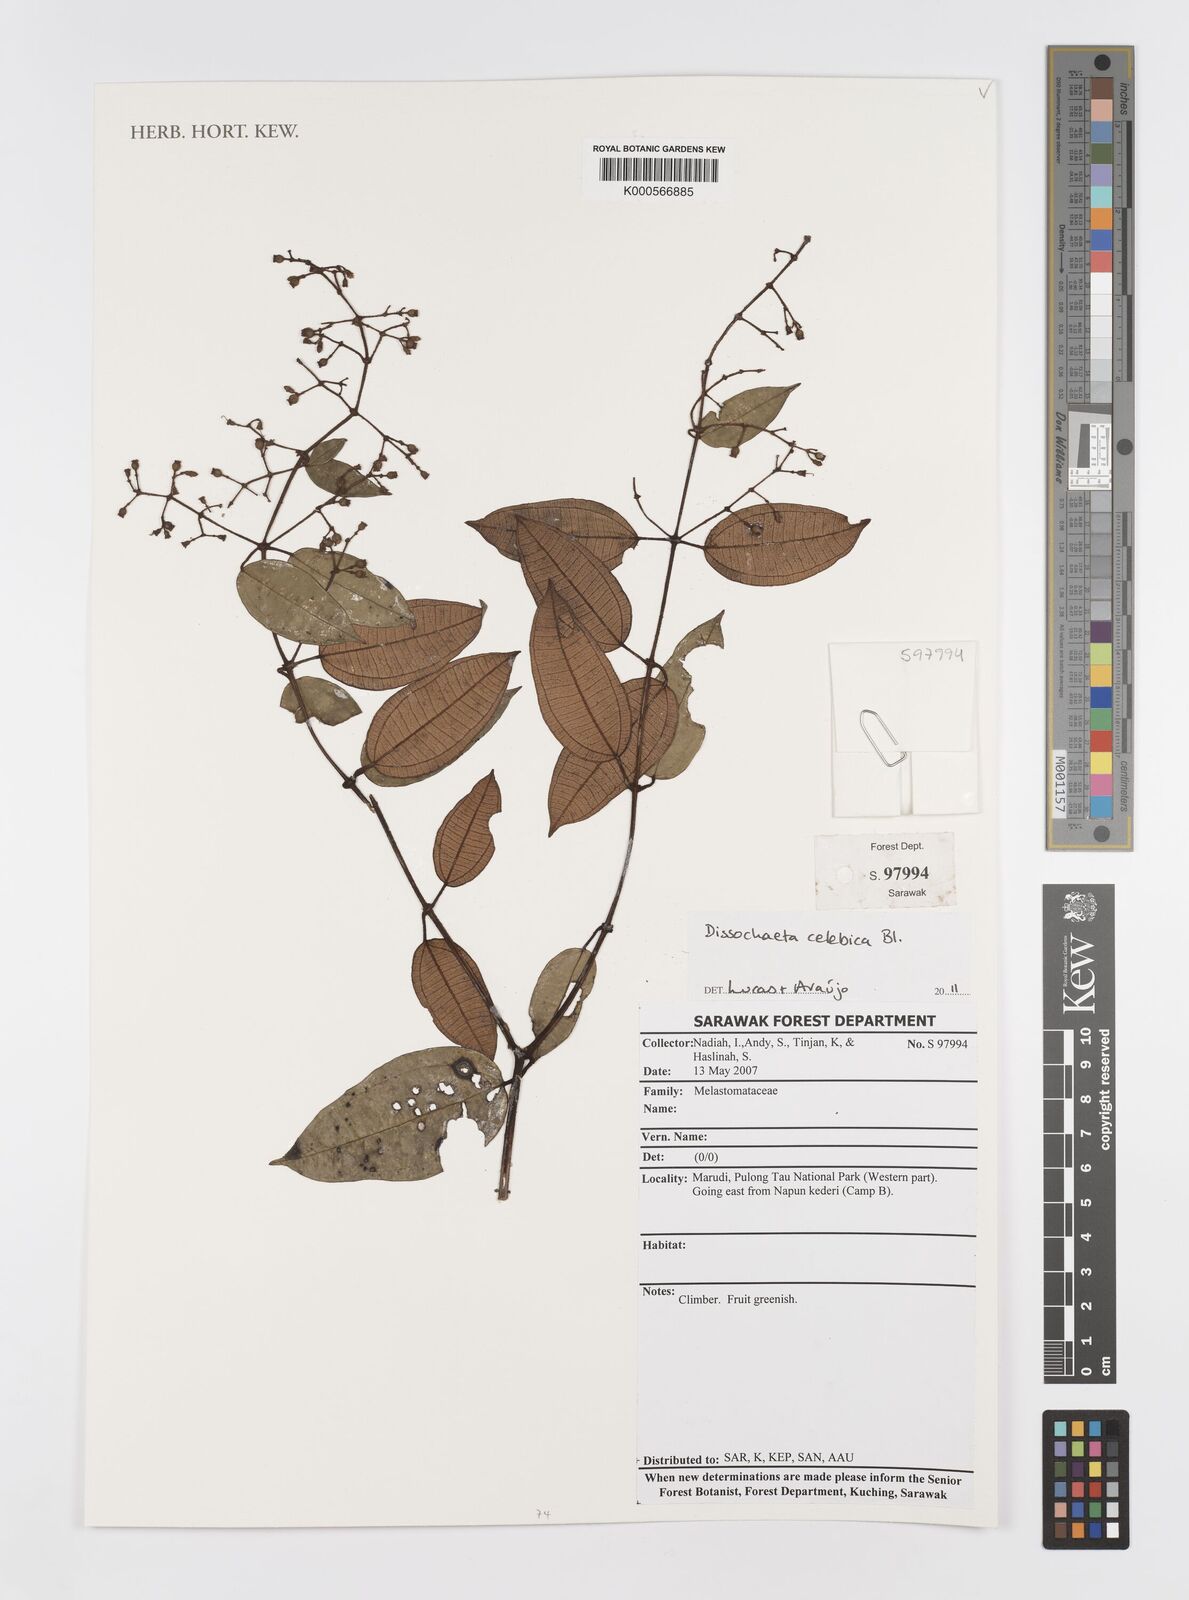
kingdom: Plantae
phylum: Tracheophyta
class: Magnoliopsida
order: Myrtales
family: Melastomataceae
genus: Dissochaeta
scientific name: Dissochaeta celebica
